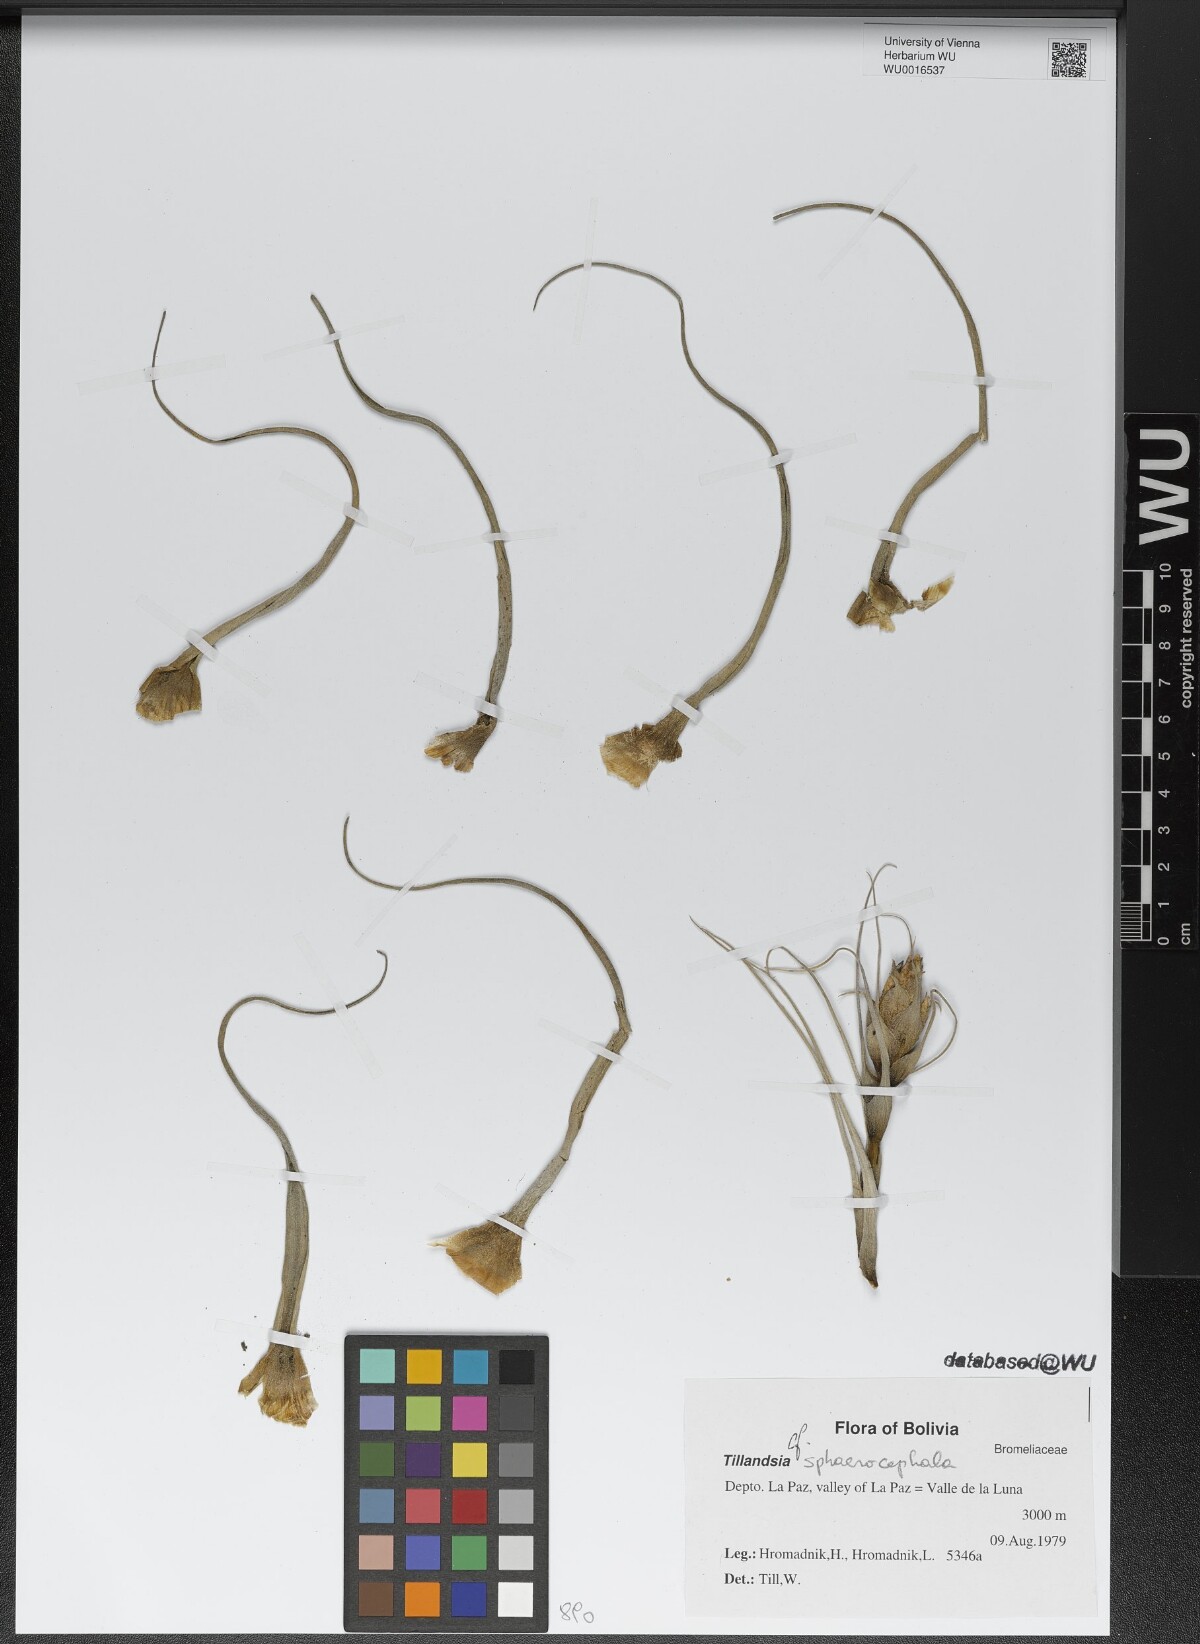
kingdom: Plantae
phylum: Tracheophyta
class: Liliopsida
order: Poales
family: Bromeliaceae
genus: Tillandsia
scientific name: Tillandsia sphaerocephala
